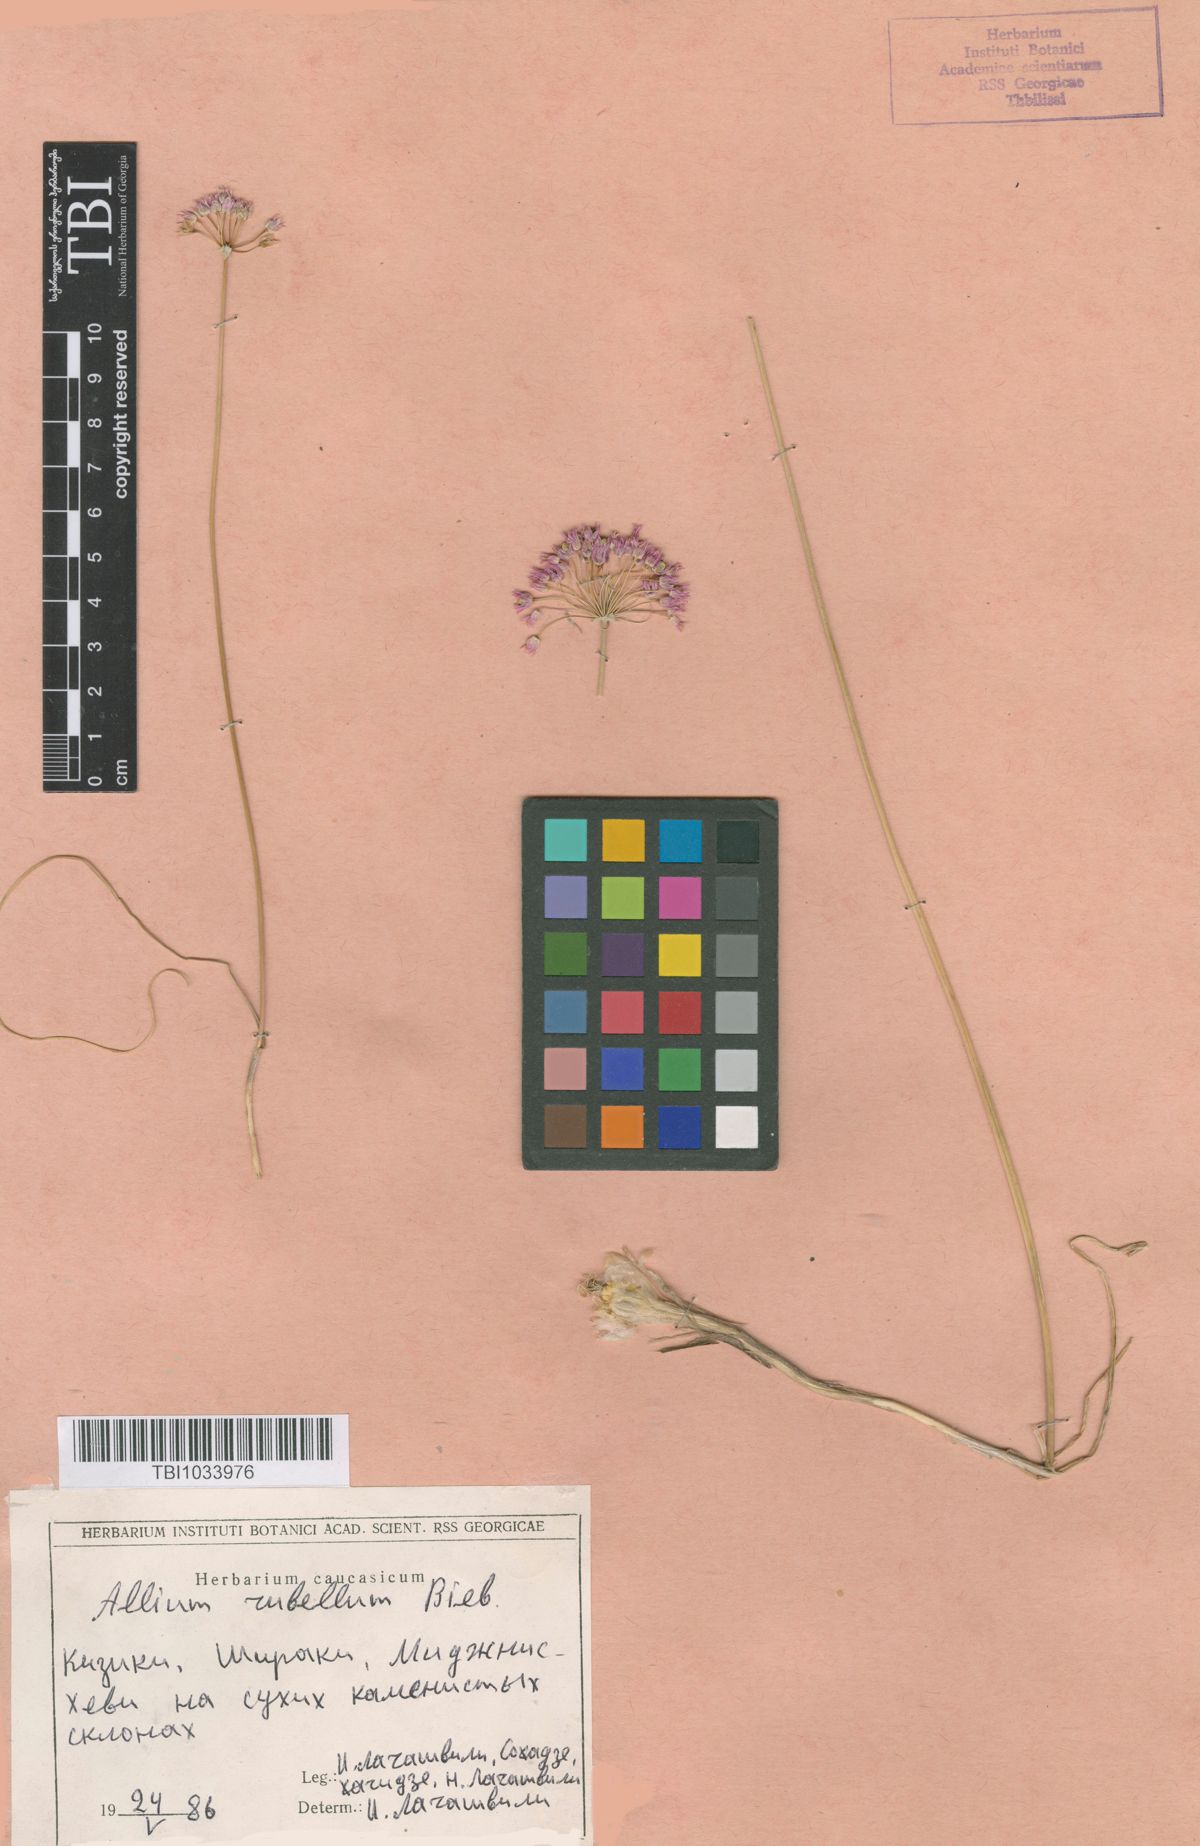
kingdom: Plantae
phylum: Tracheophyta
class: Liliopsida
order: Asparagales
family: Amaryllidaceae
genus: Allium
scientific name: Allium rubellum
